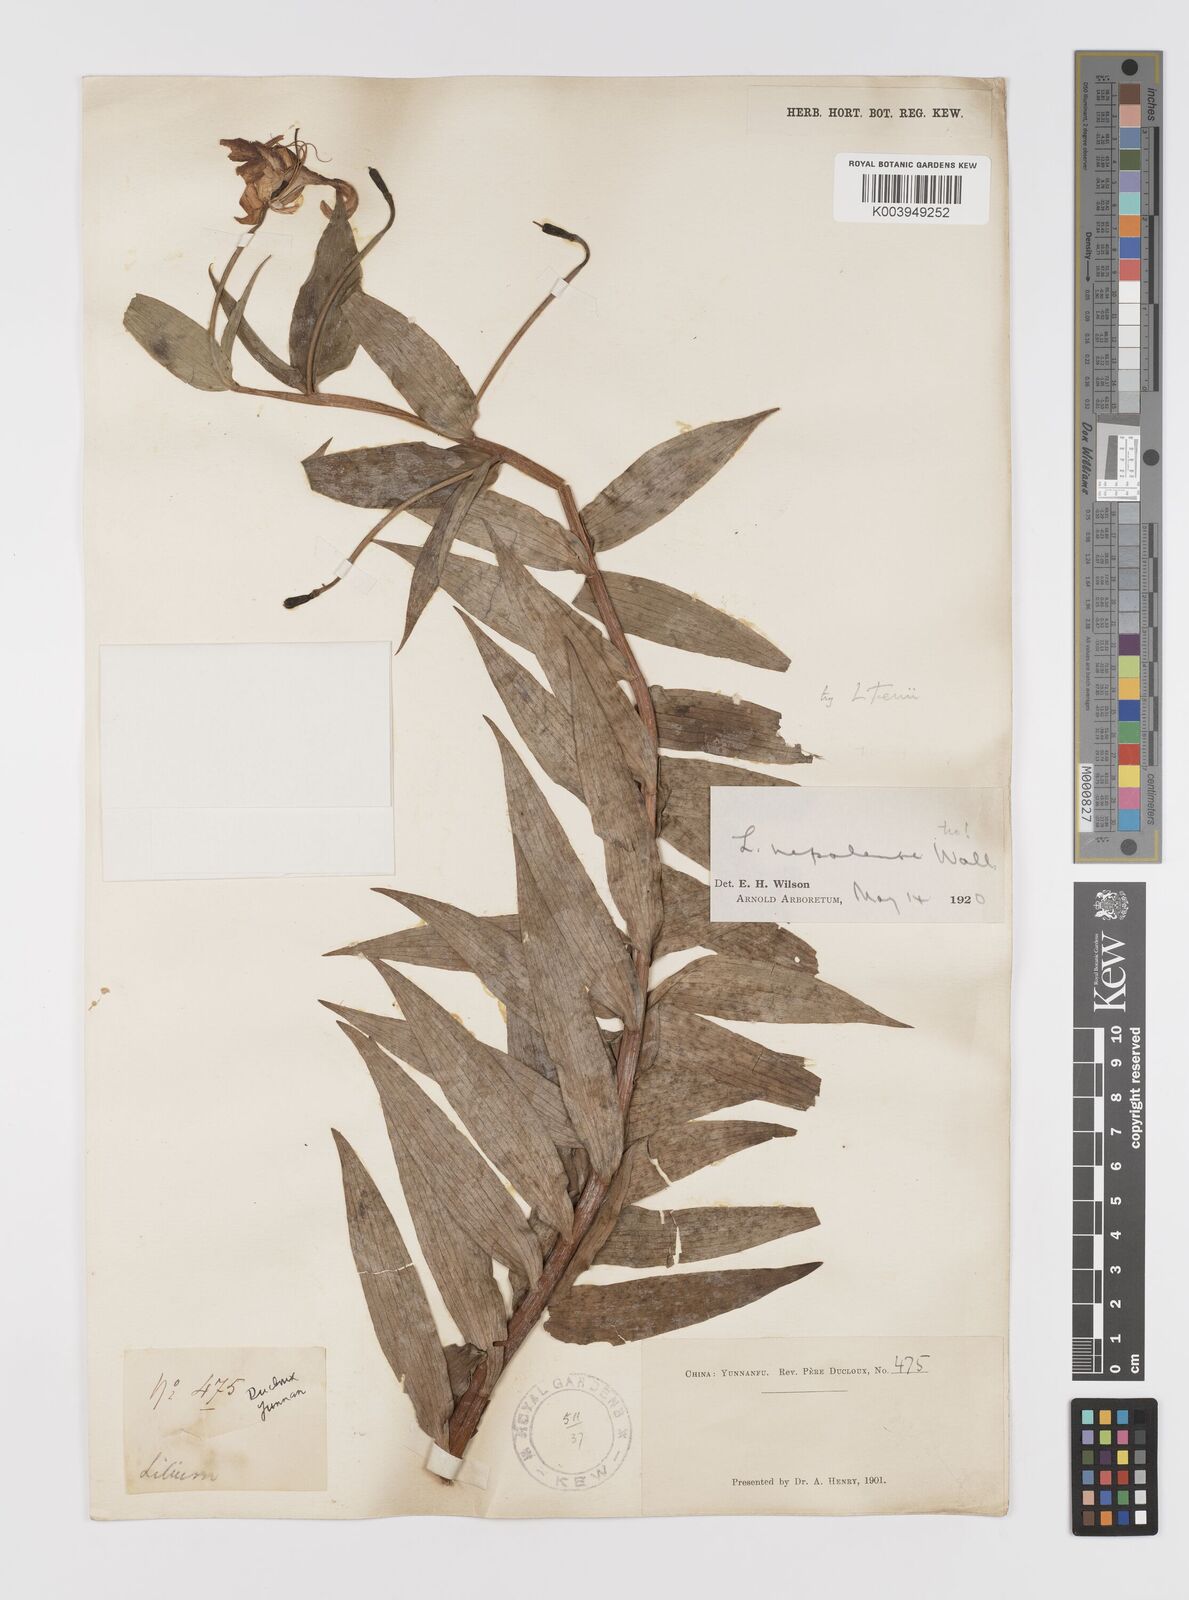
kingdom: Plantae
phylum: Tracheophyta
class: Liliopsida
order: Liliales
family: Liliaceae
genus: Lilium
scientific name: Lilium tenii
